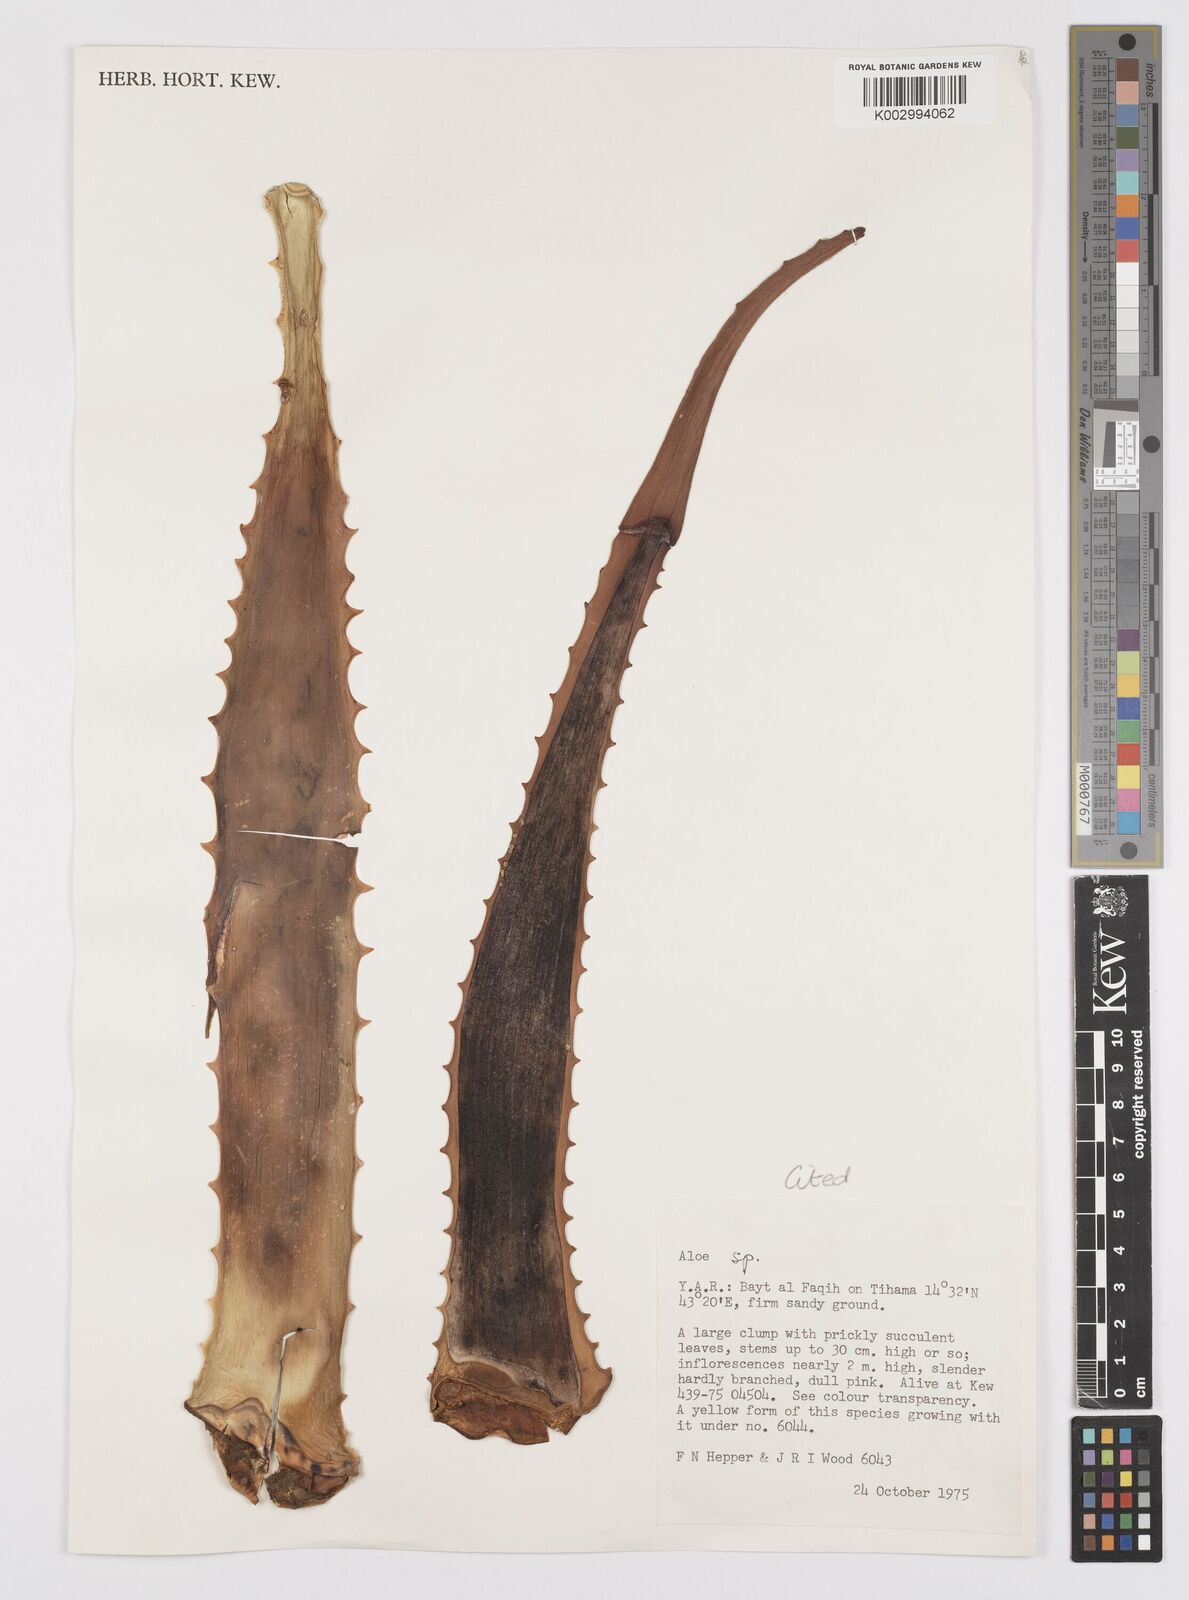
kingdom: Plantae
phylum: Tracheophyta
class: Liliopsida
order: Asparagales
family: Asphodelaceae
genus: Aloe
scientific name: Aloe officinalis
